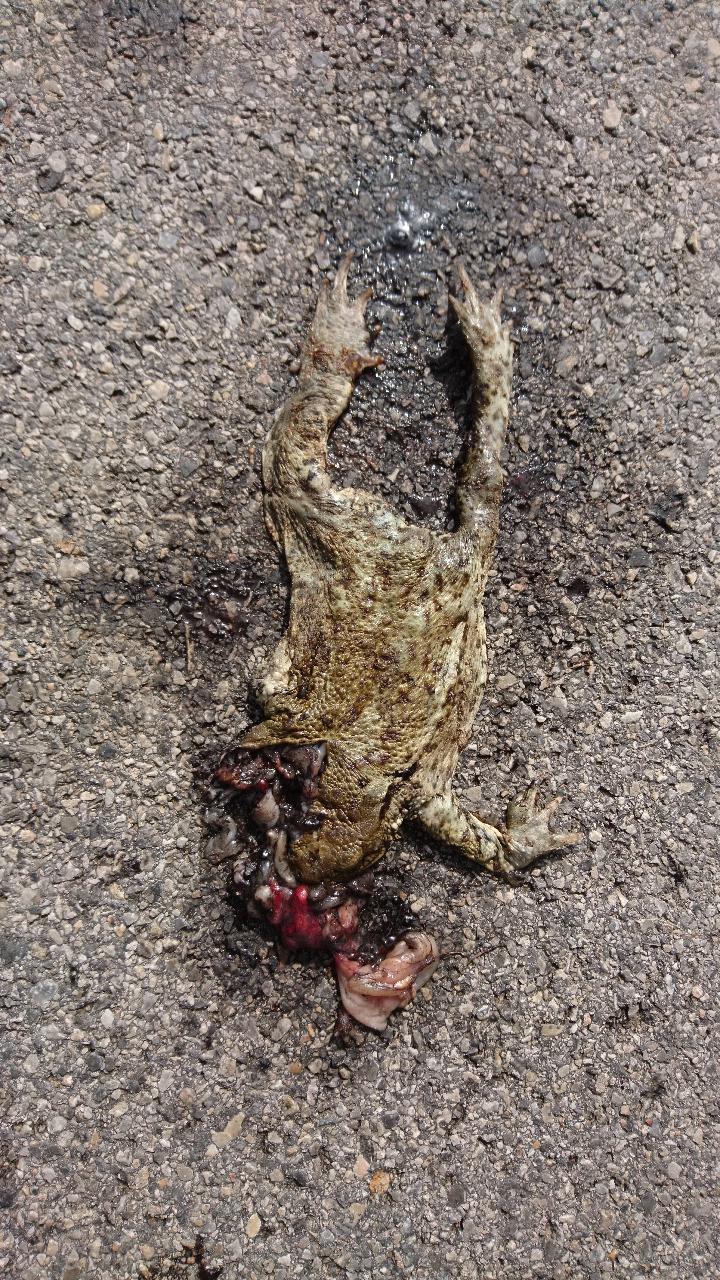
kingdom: Animalia
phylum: Chordata
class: Amphibia
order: Anura
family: Bufonidae
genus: Bufo
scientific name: Bufo bufo
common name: Common toad
